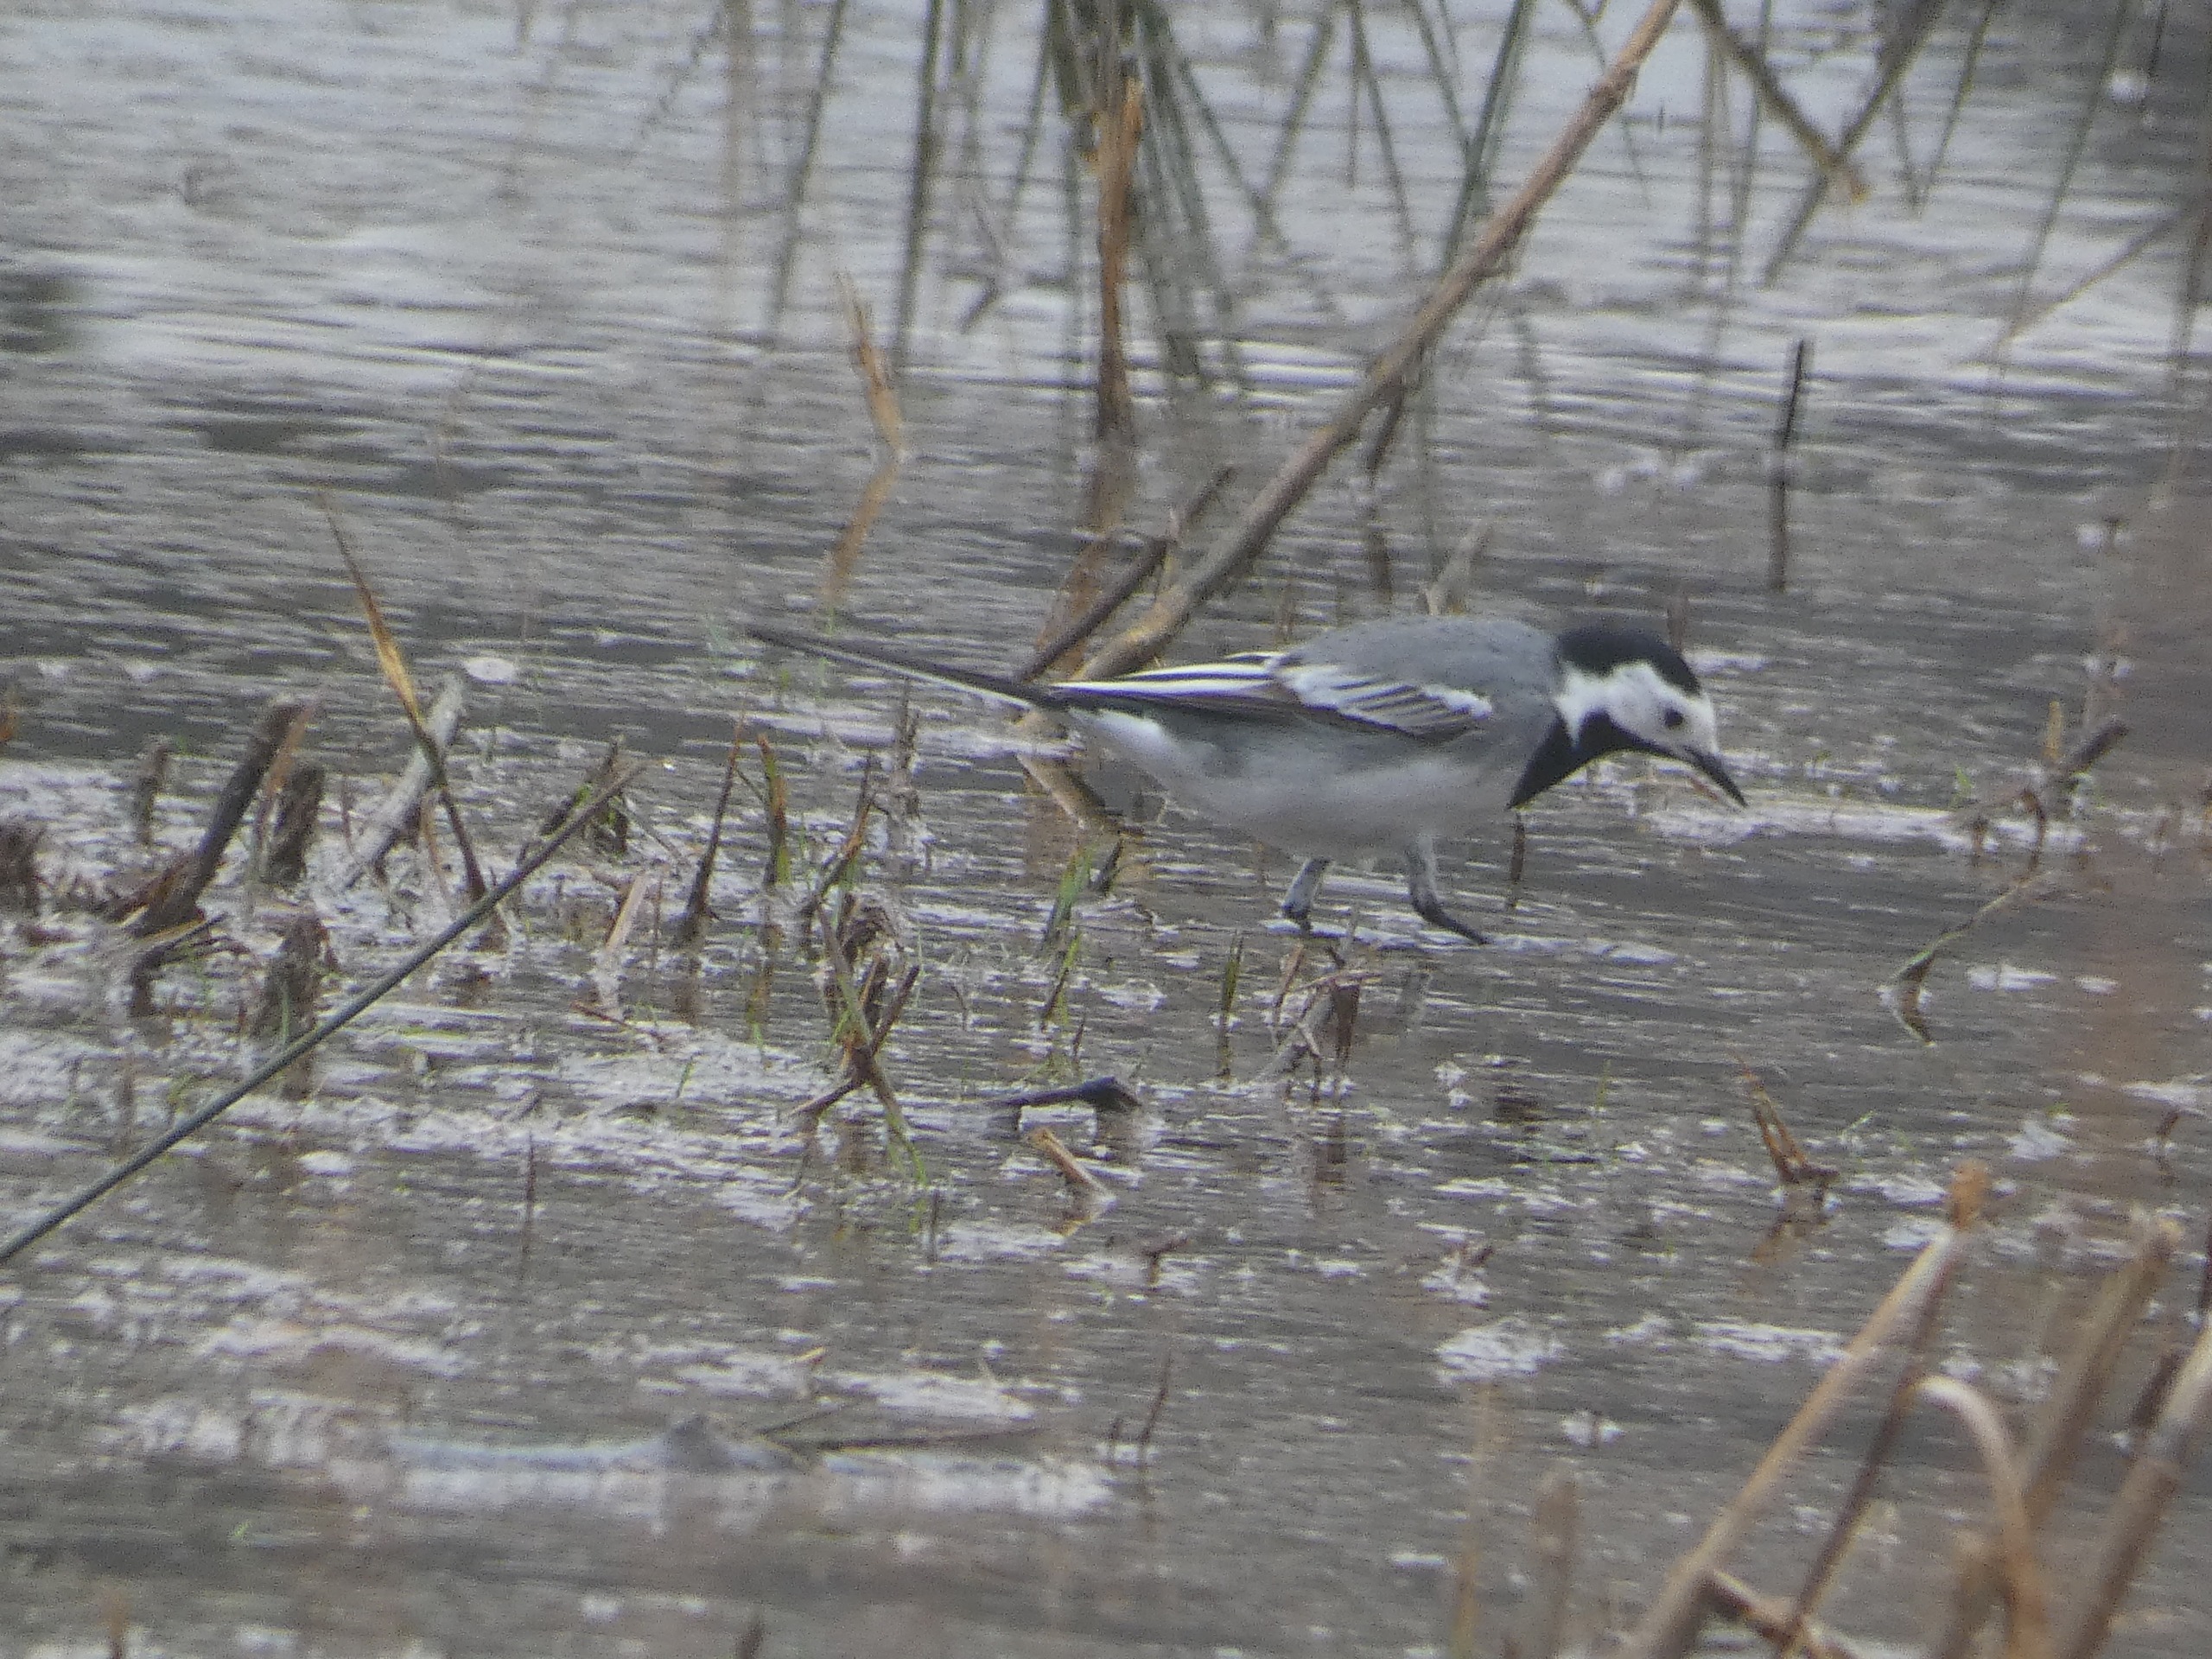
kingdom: Animalia
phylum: Chordata
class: Aves
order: Passeriformes
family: Motacillidae
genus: Motacilla
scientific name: Motacilla alba
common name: Hvid vipstjert
